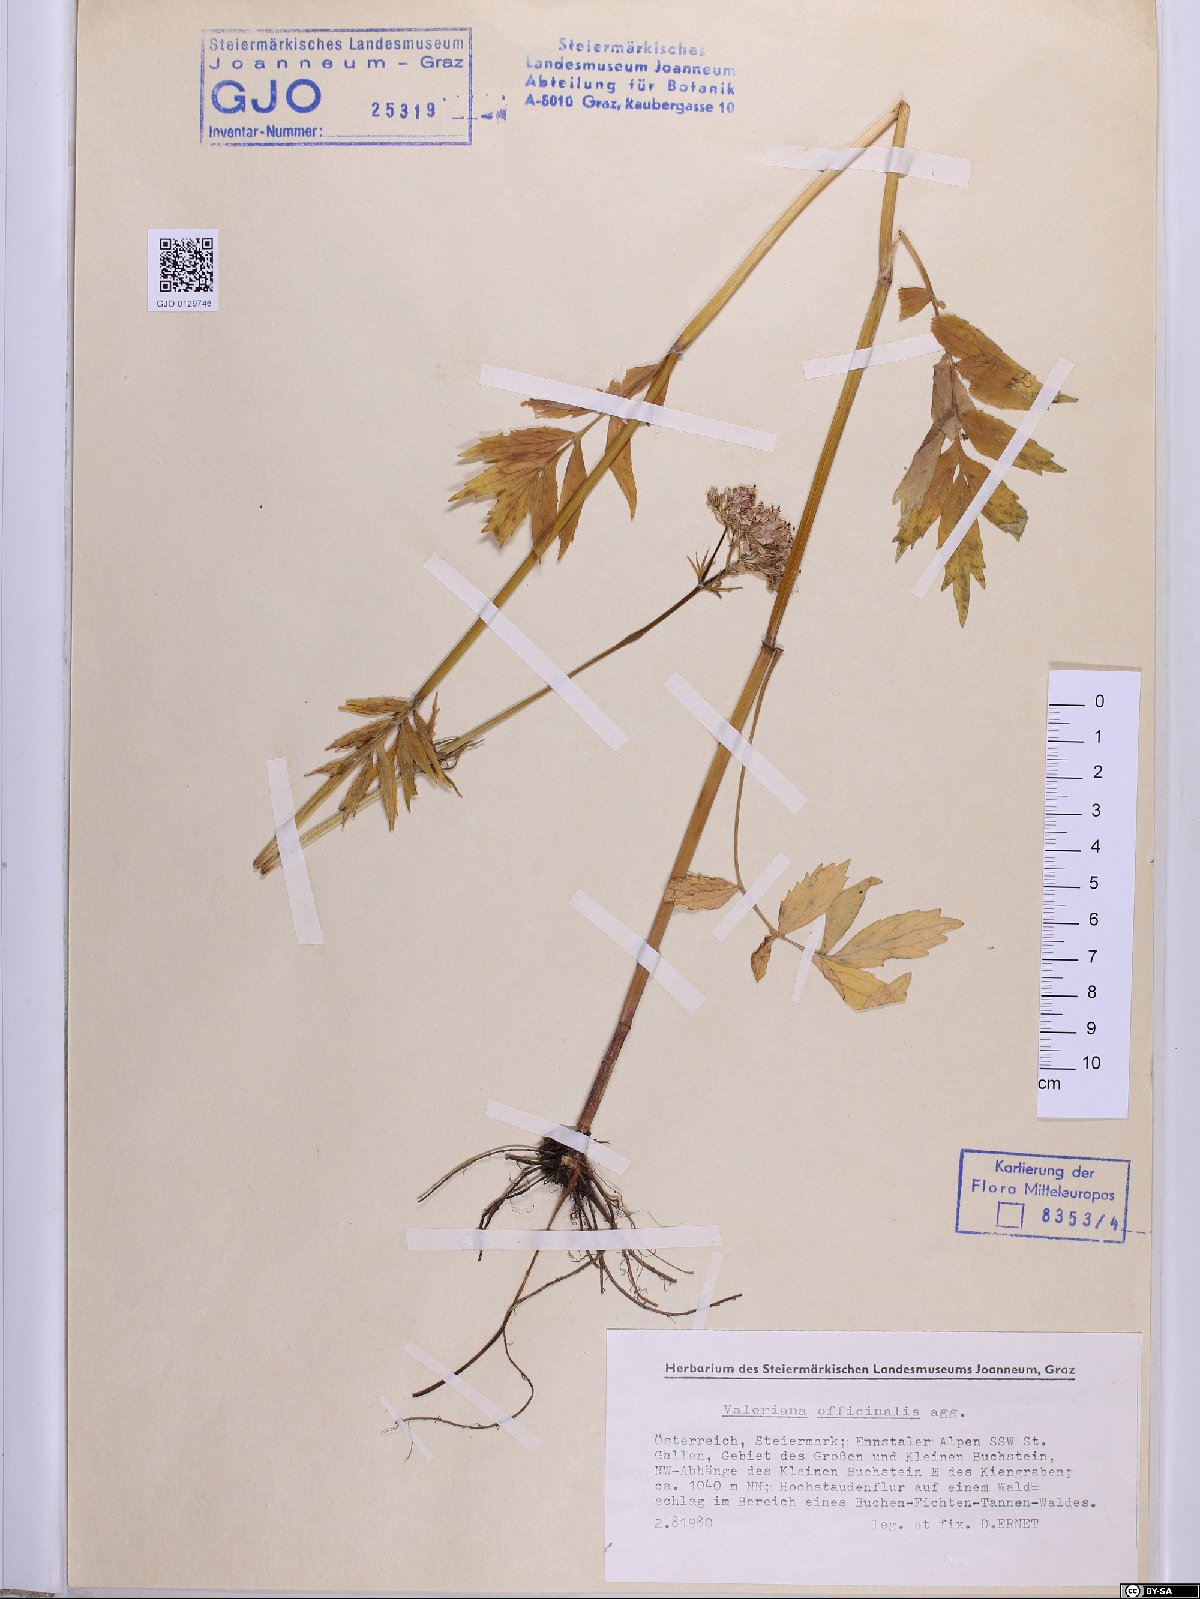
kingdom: Plantae
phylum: Tracheophyta
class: Magnoliopsida
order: Dipsacales
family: Caprifoliaceae
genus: Valeriana
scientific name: Valeriana officinalis
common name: Common valerian
